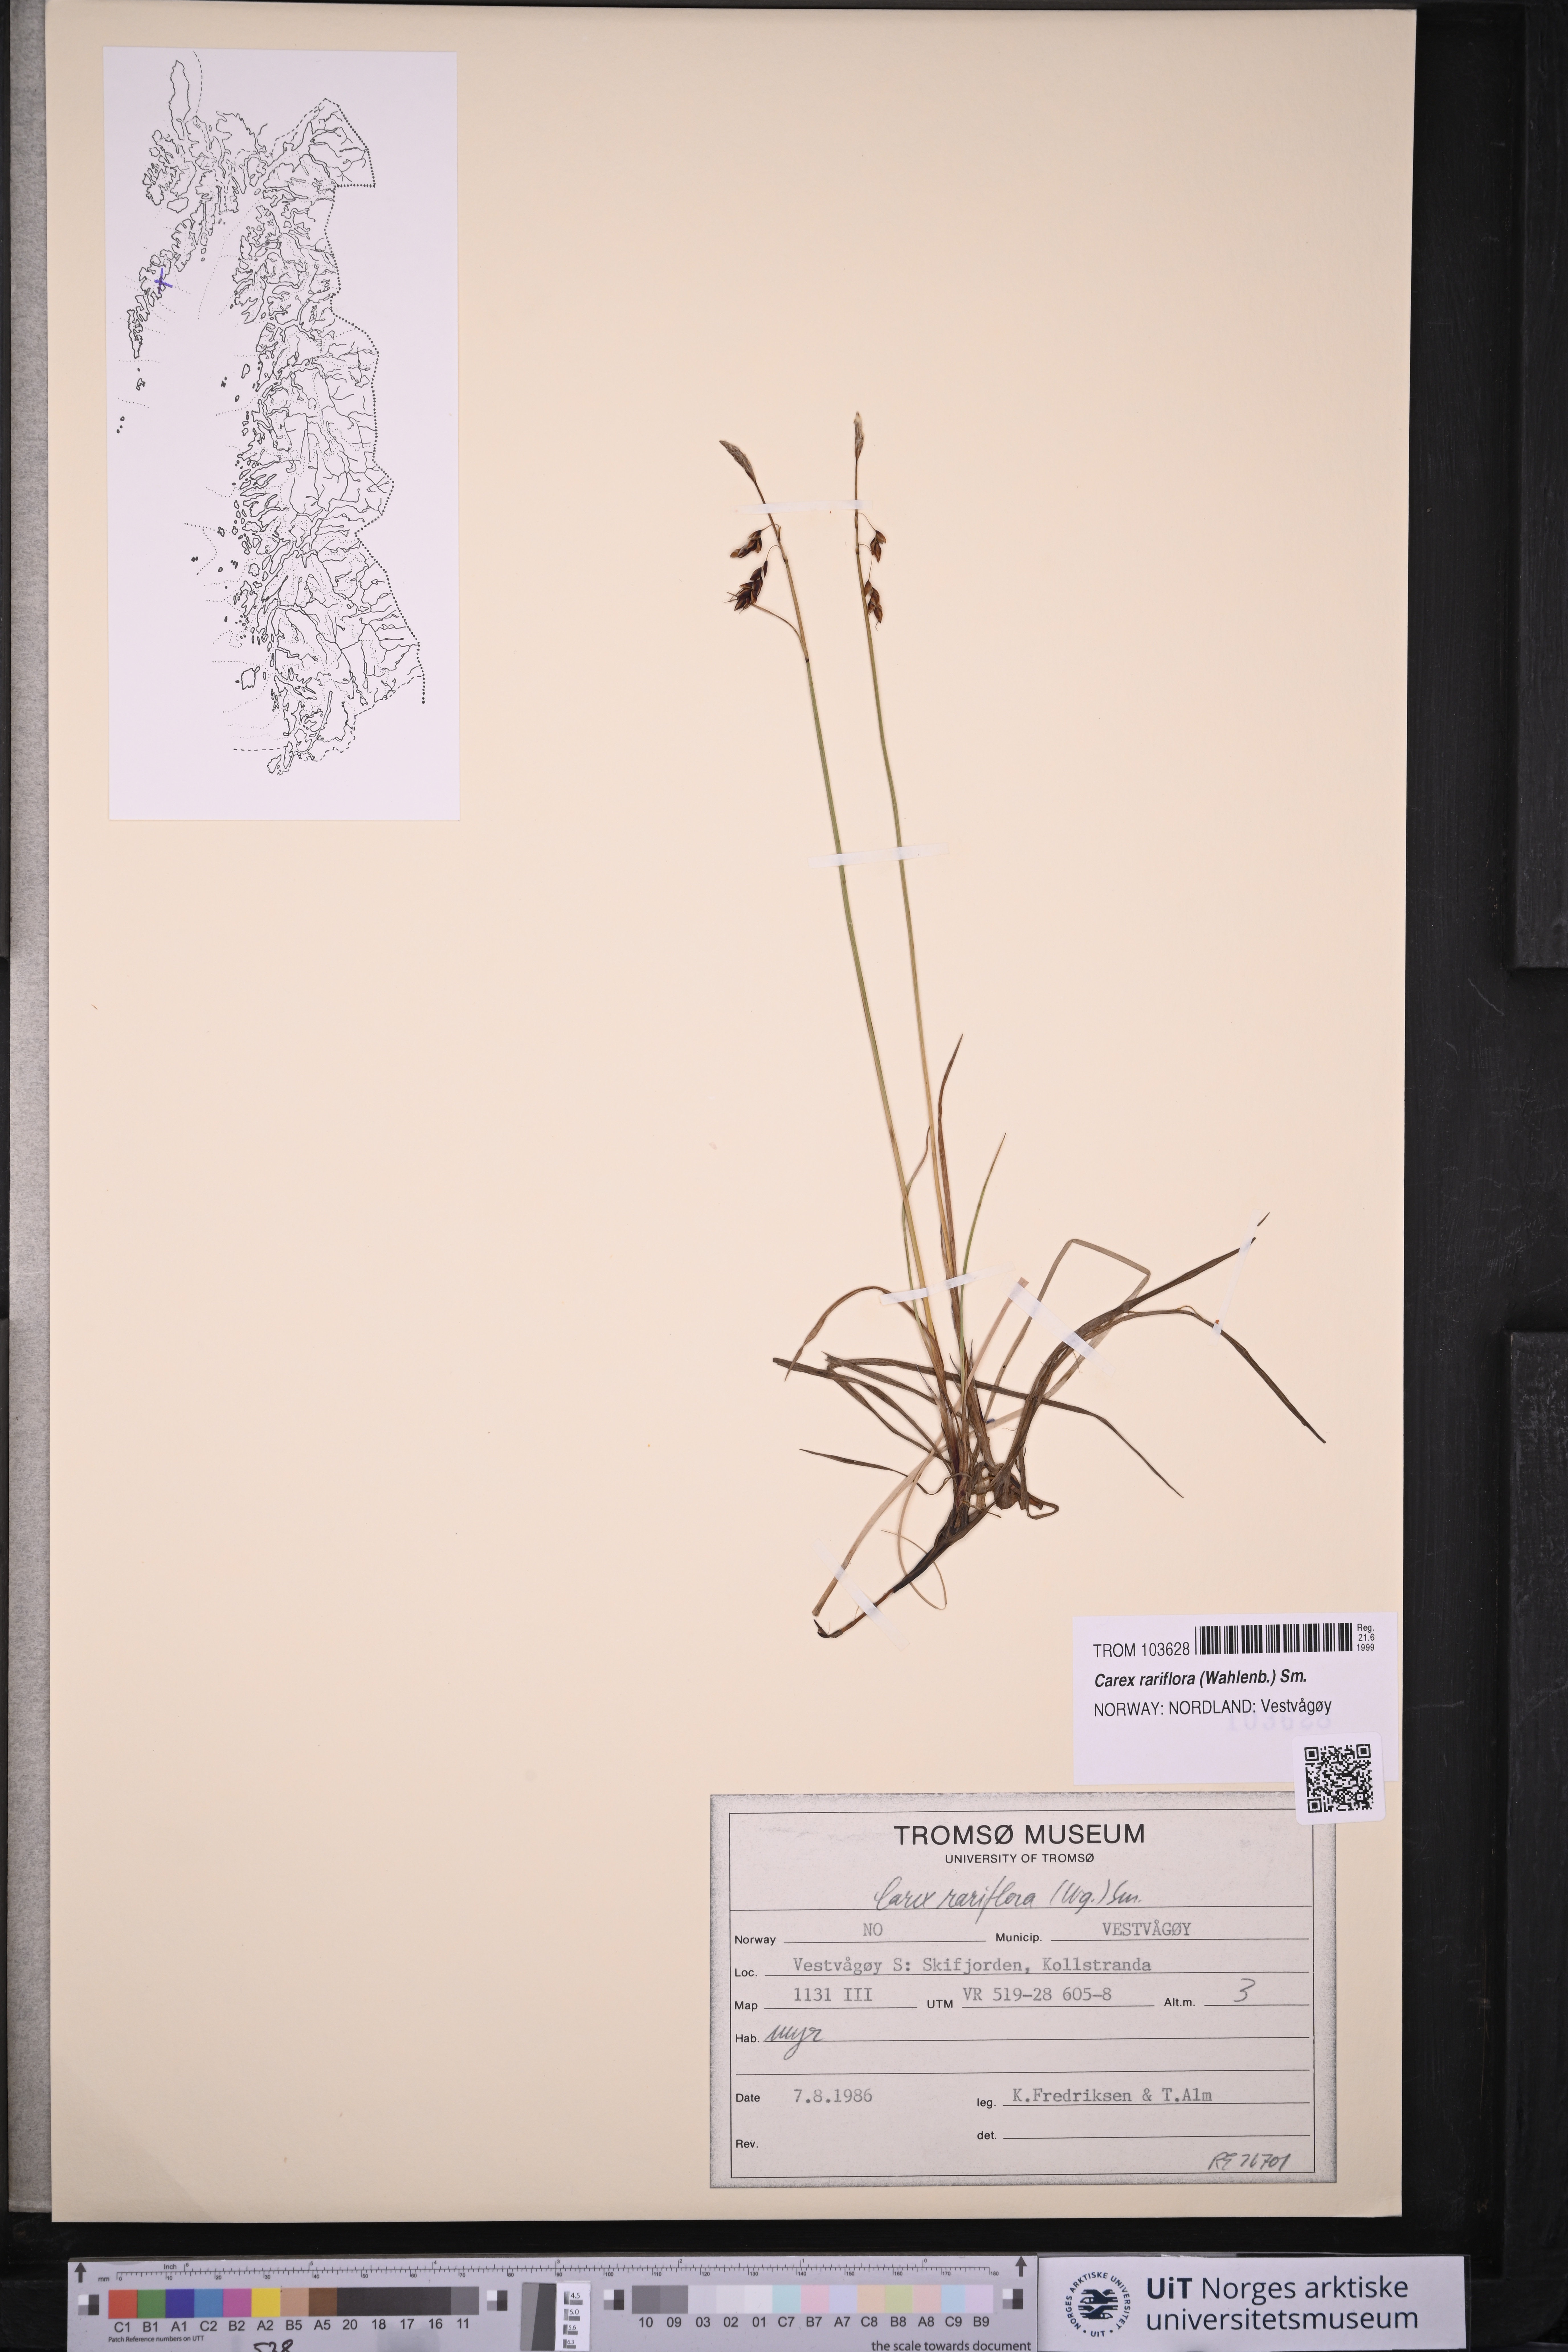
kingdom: Plantae
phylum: Tracheophyta
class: Liliopsida
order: Poales
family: Cyperaceae
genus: Carex
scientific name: Carex rariflora
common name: Loose-flowered alpine sedge
